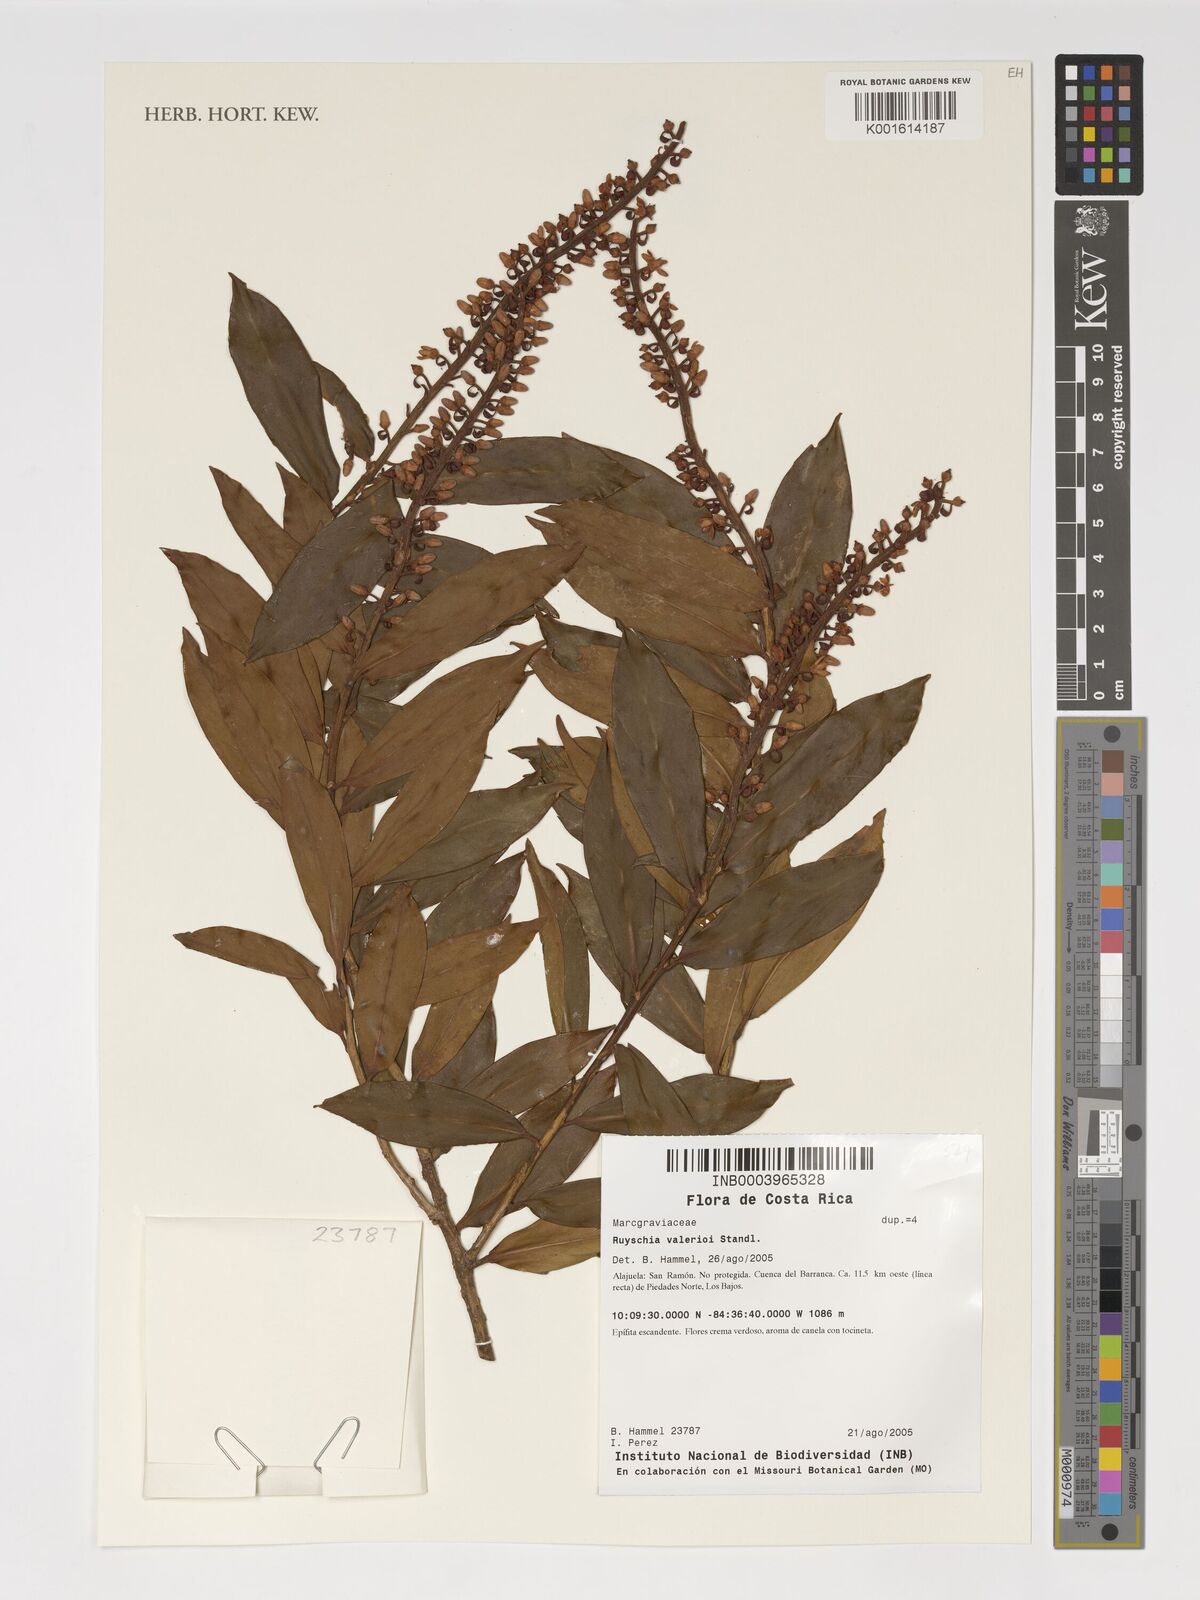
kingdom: Plantae
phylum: Tracheophyta
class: Magnoliopsida
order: Ericales
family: Marcgraviaceae
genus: Ruyschia
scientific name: Ruyschia valerioi
